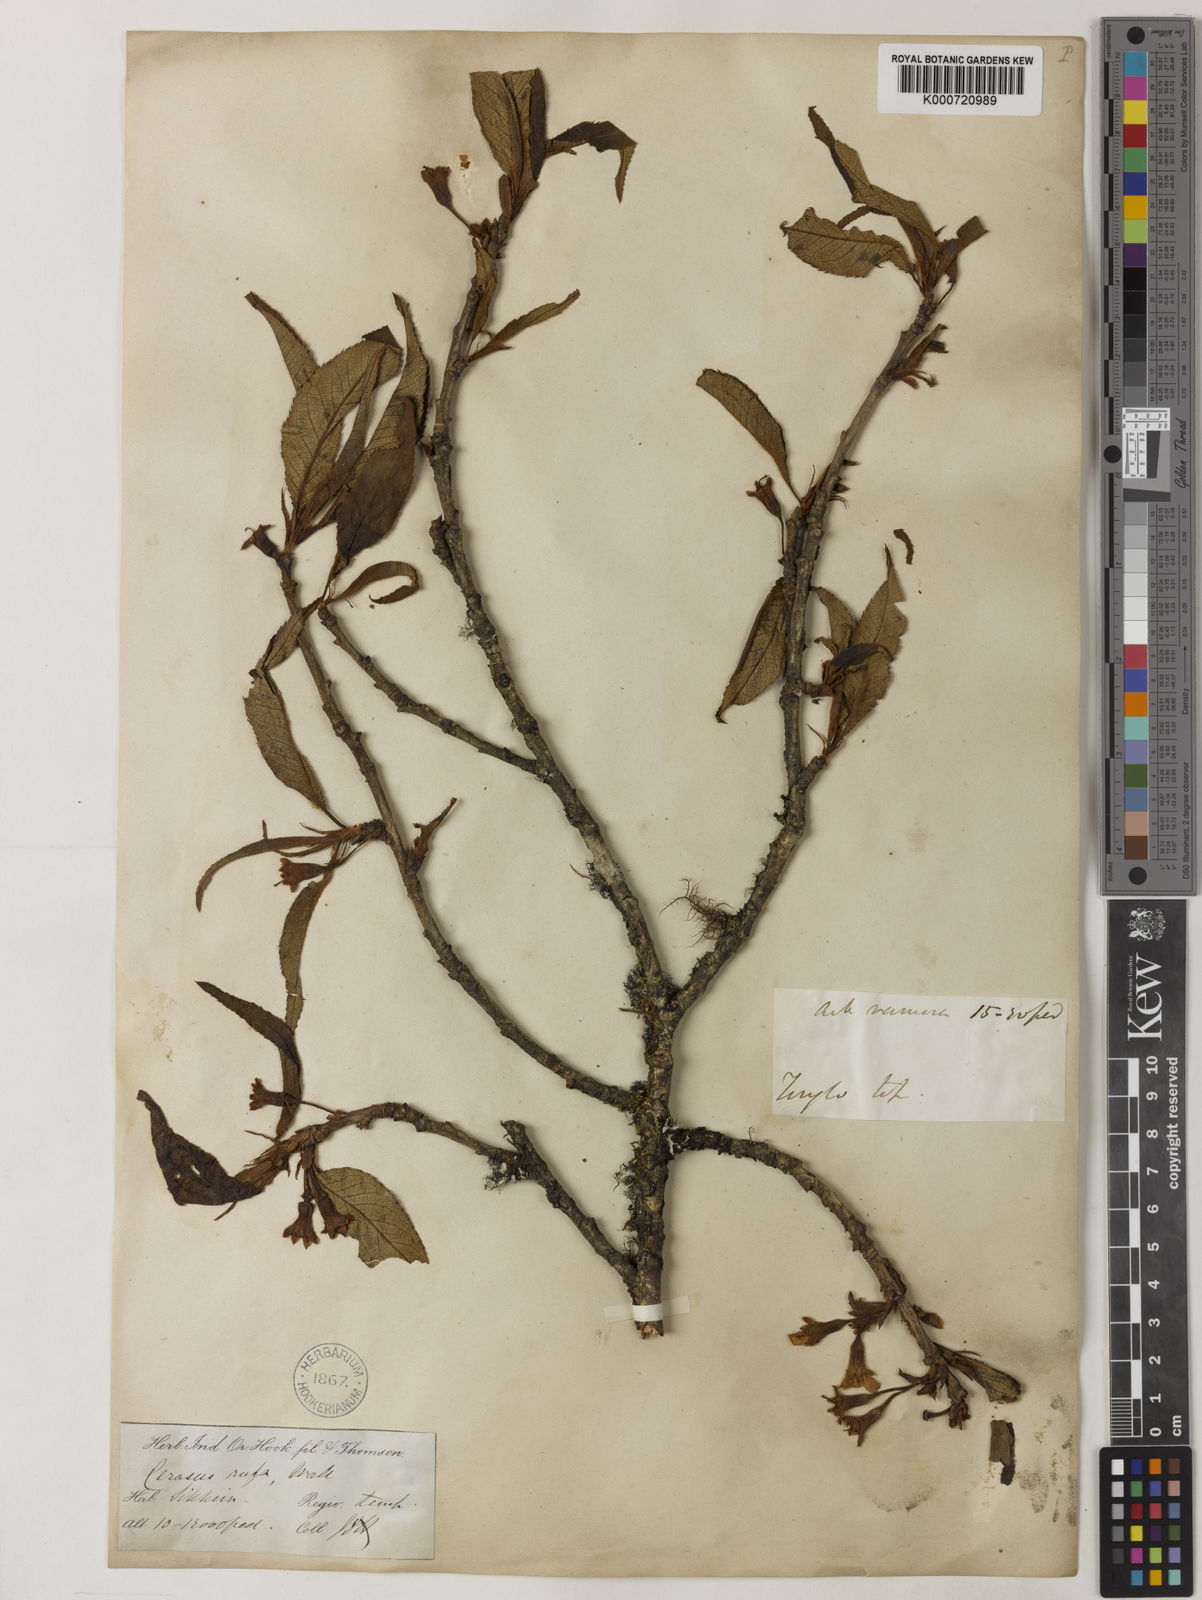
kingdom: Plantae
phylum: Tracheophyta
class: Magnoliopsida
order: Rosales
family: Rosaceae
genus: Prunus
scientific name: Prunus trichantha
